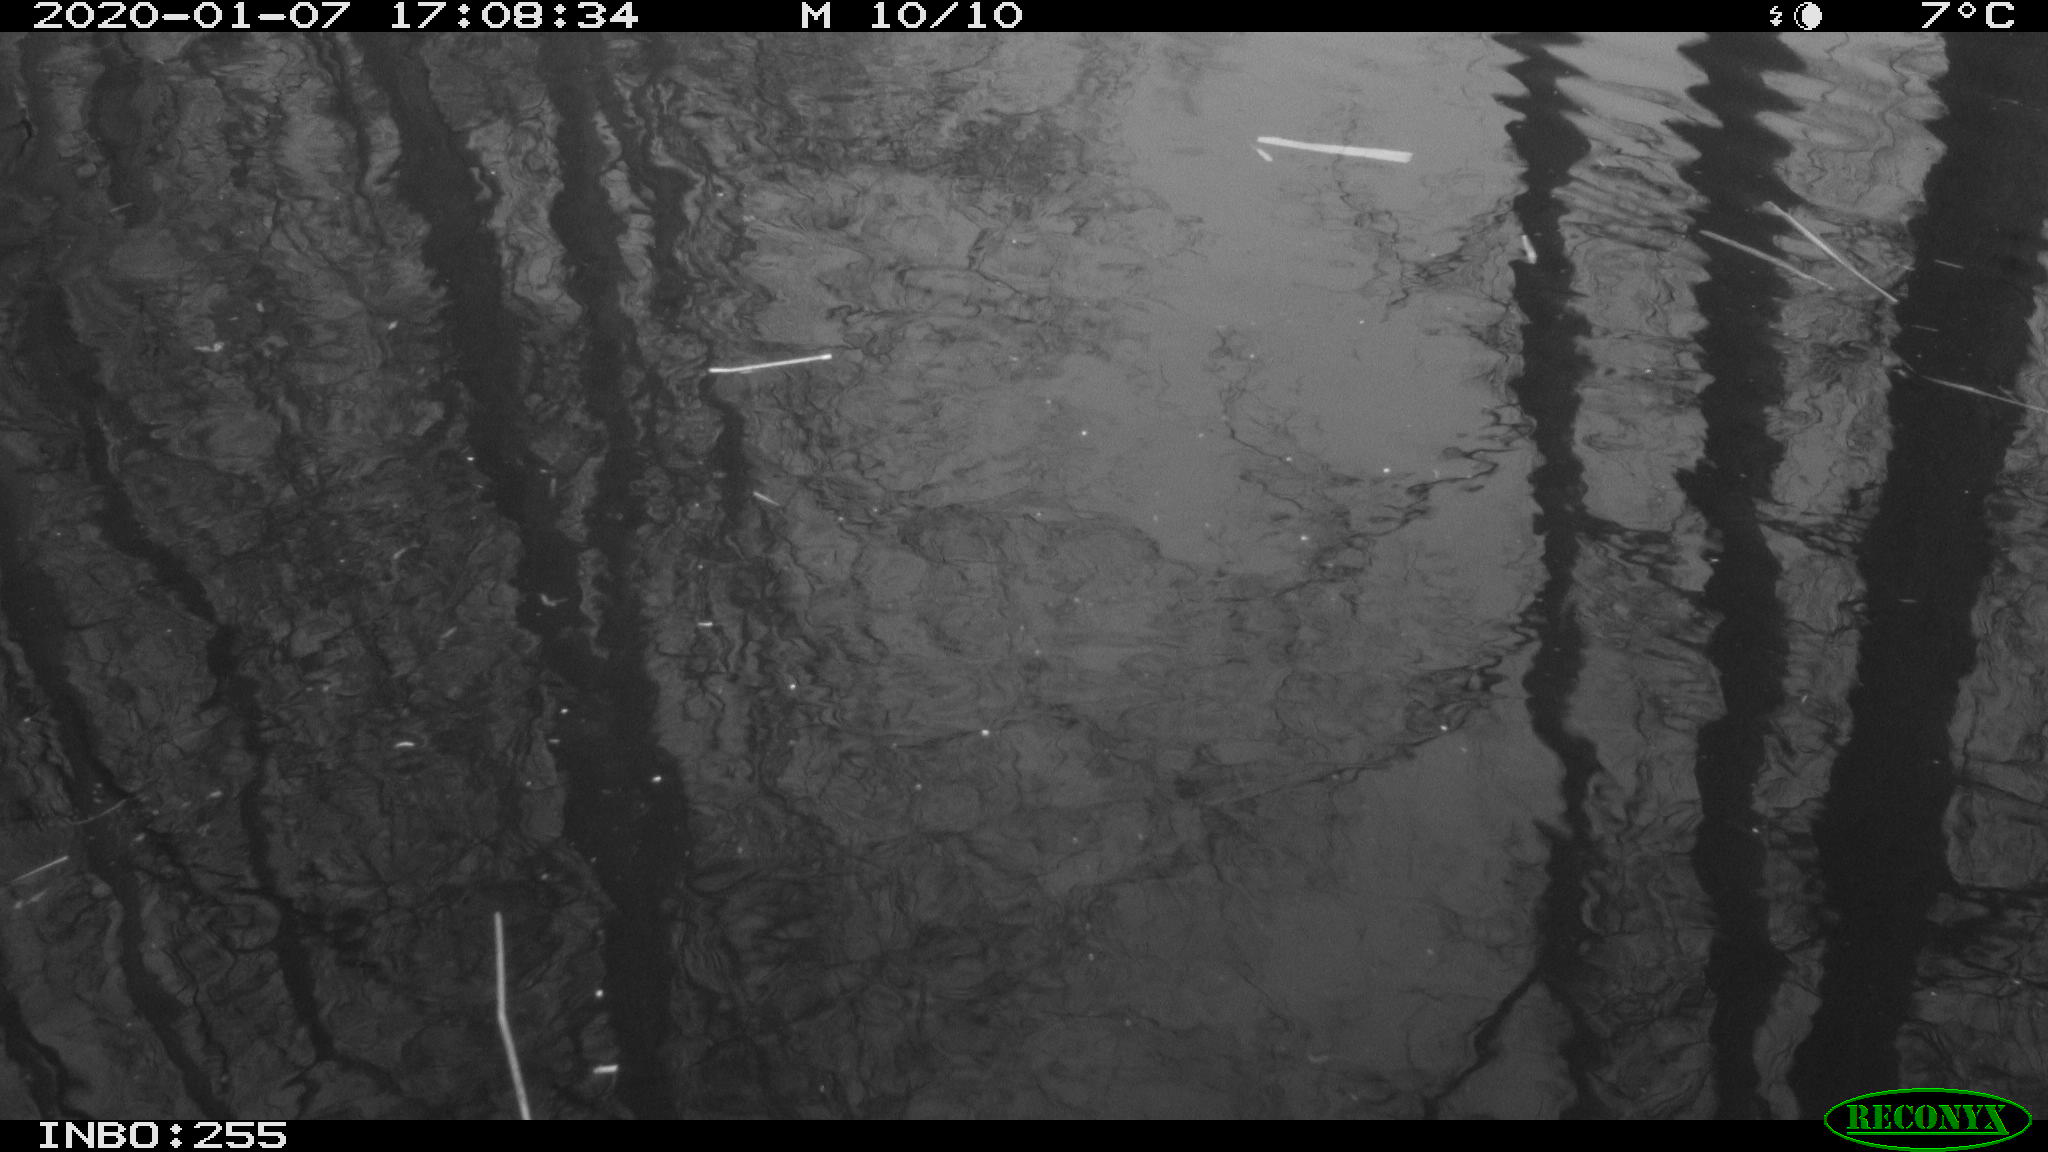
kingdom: Animalia
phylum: Chordata
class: Aves
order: Gruiformes
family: Rallidae
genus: Gallinula
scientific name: Gallinula chloropus
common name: Common moorhen
